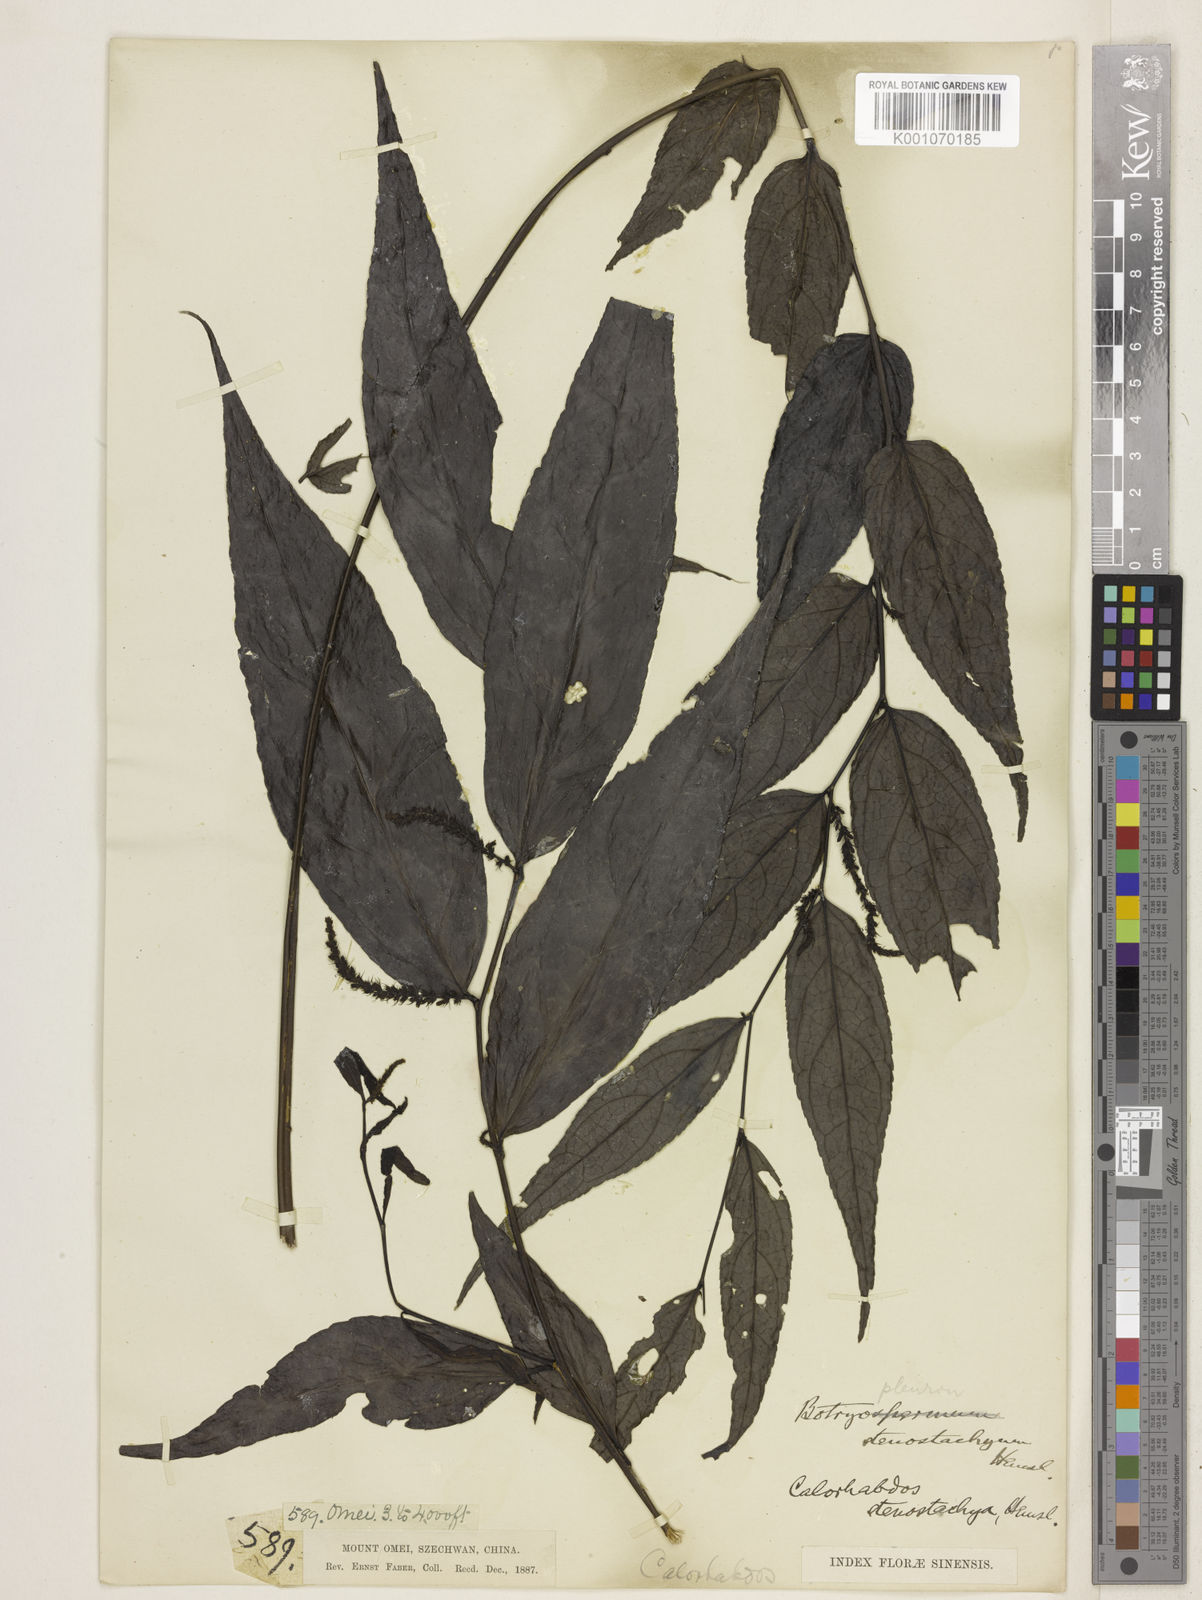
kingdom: Plantae
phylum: Tracheophyta
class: Magnoliopsida
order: Lamiales
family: Plantaginaceae
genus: Veronicastrum
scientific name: Veronicastrum stenostachyum
